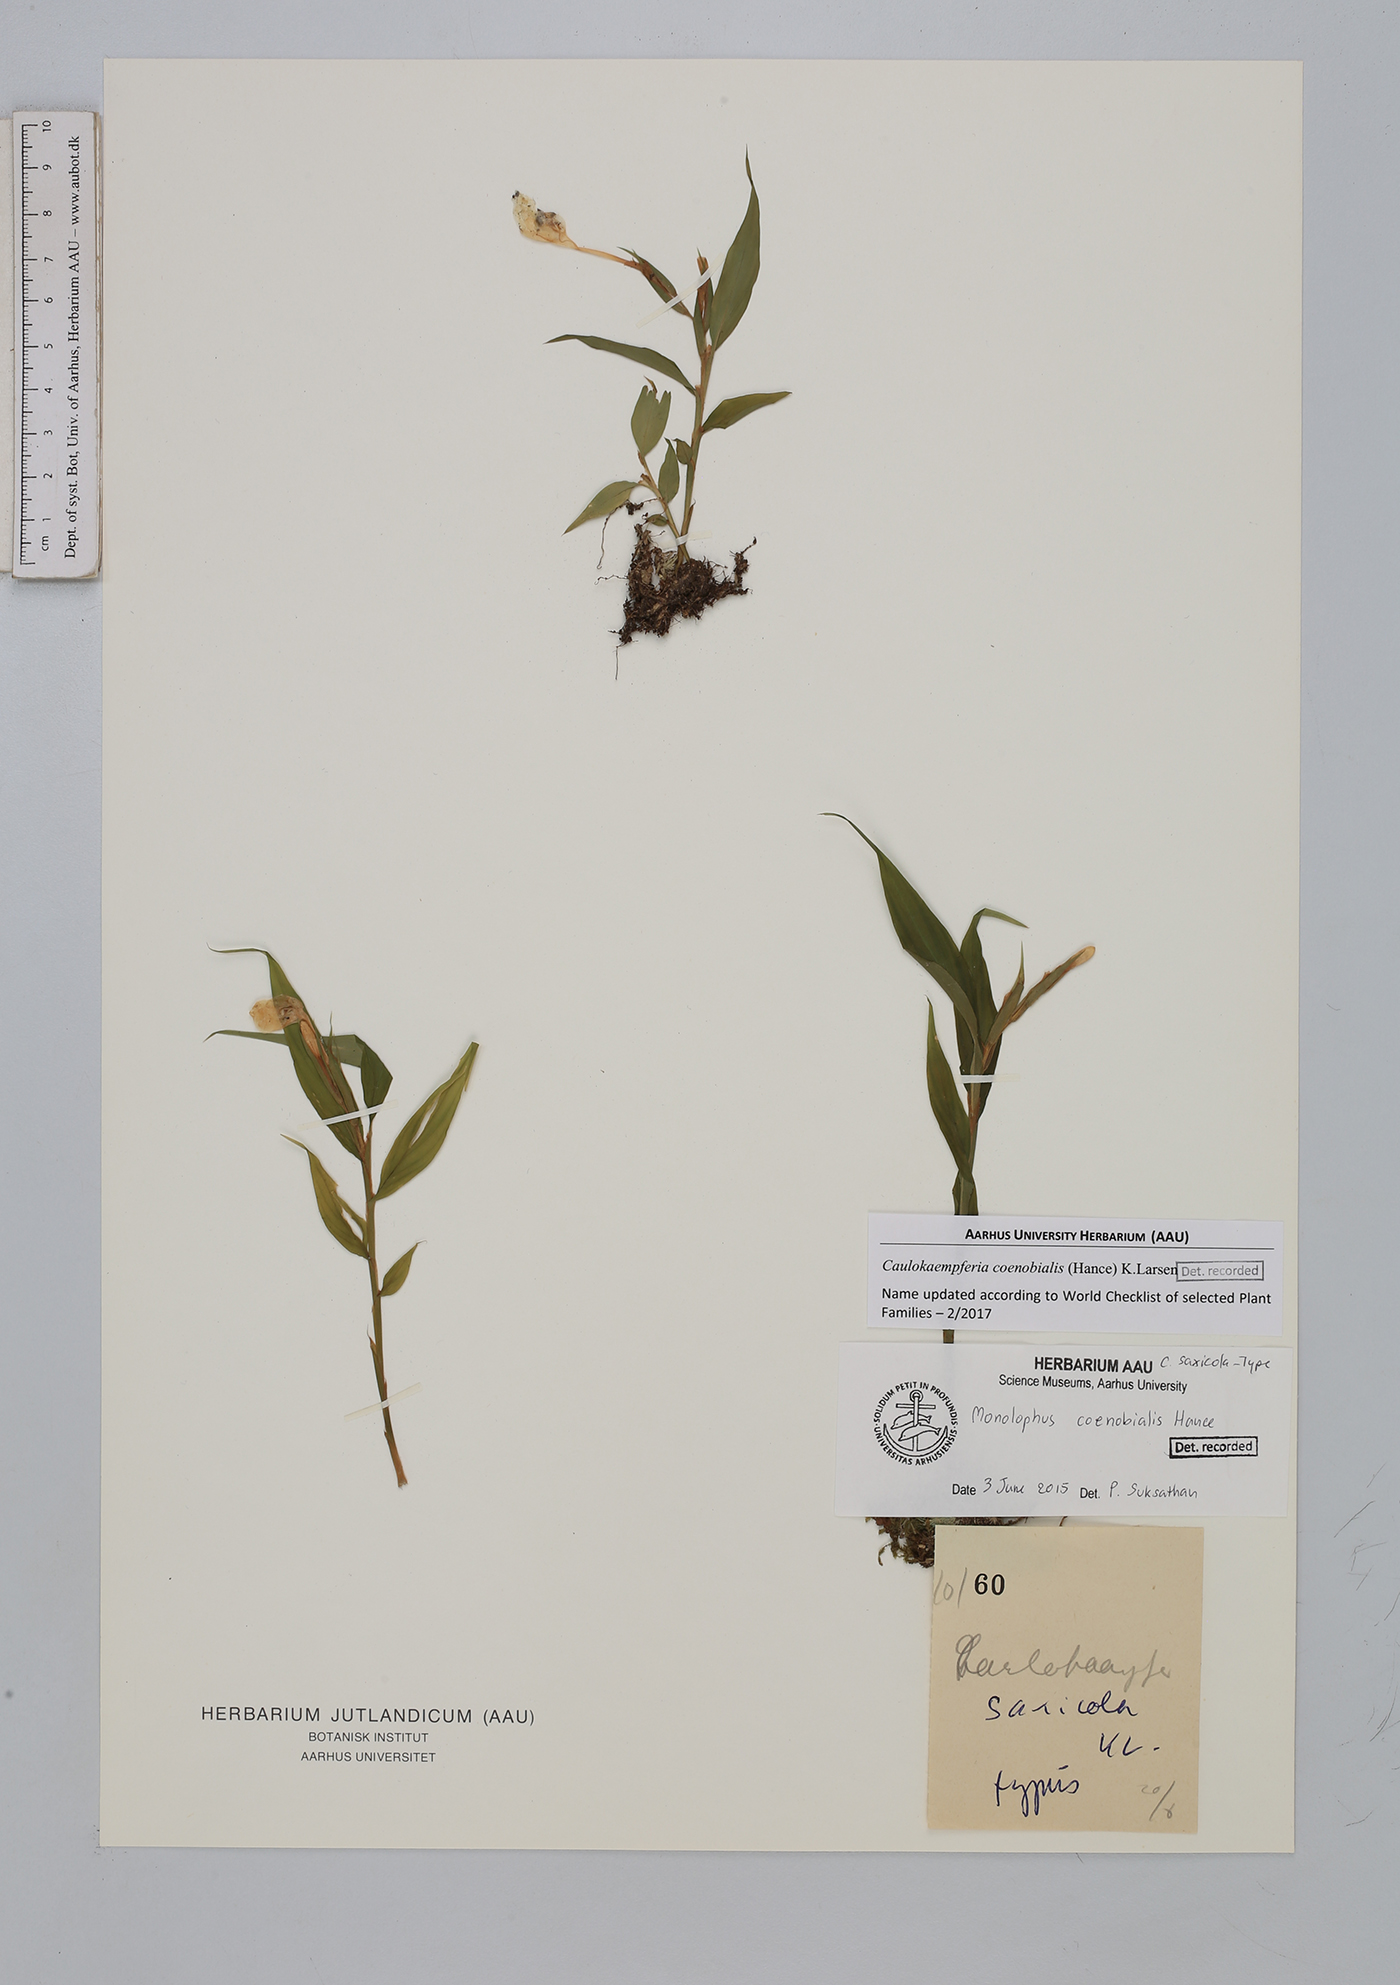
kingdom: Plantae
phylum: Tracheophyta
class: Liliopsida
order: Zingiberales
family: Zingiberaceae
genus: Caulokaempferia
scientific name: Caulokaempferia coenobialis
